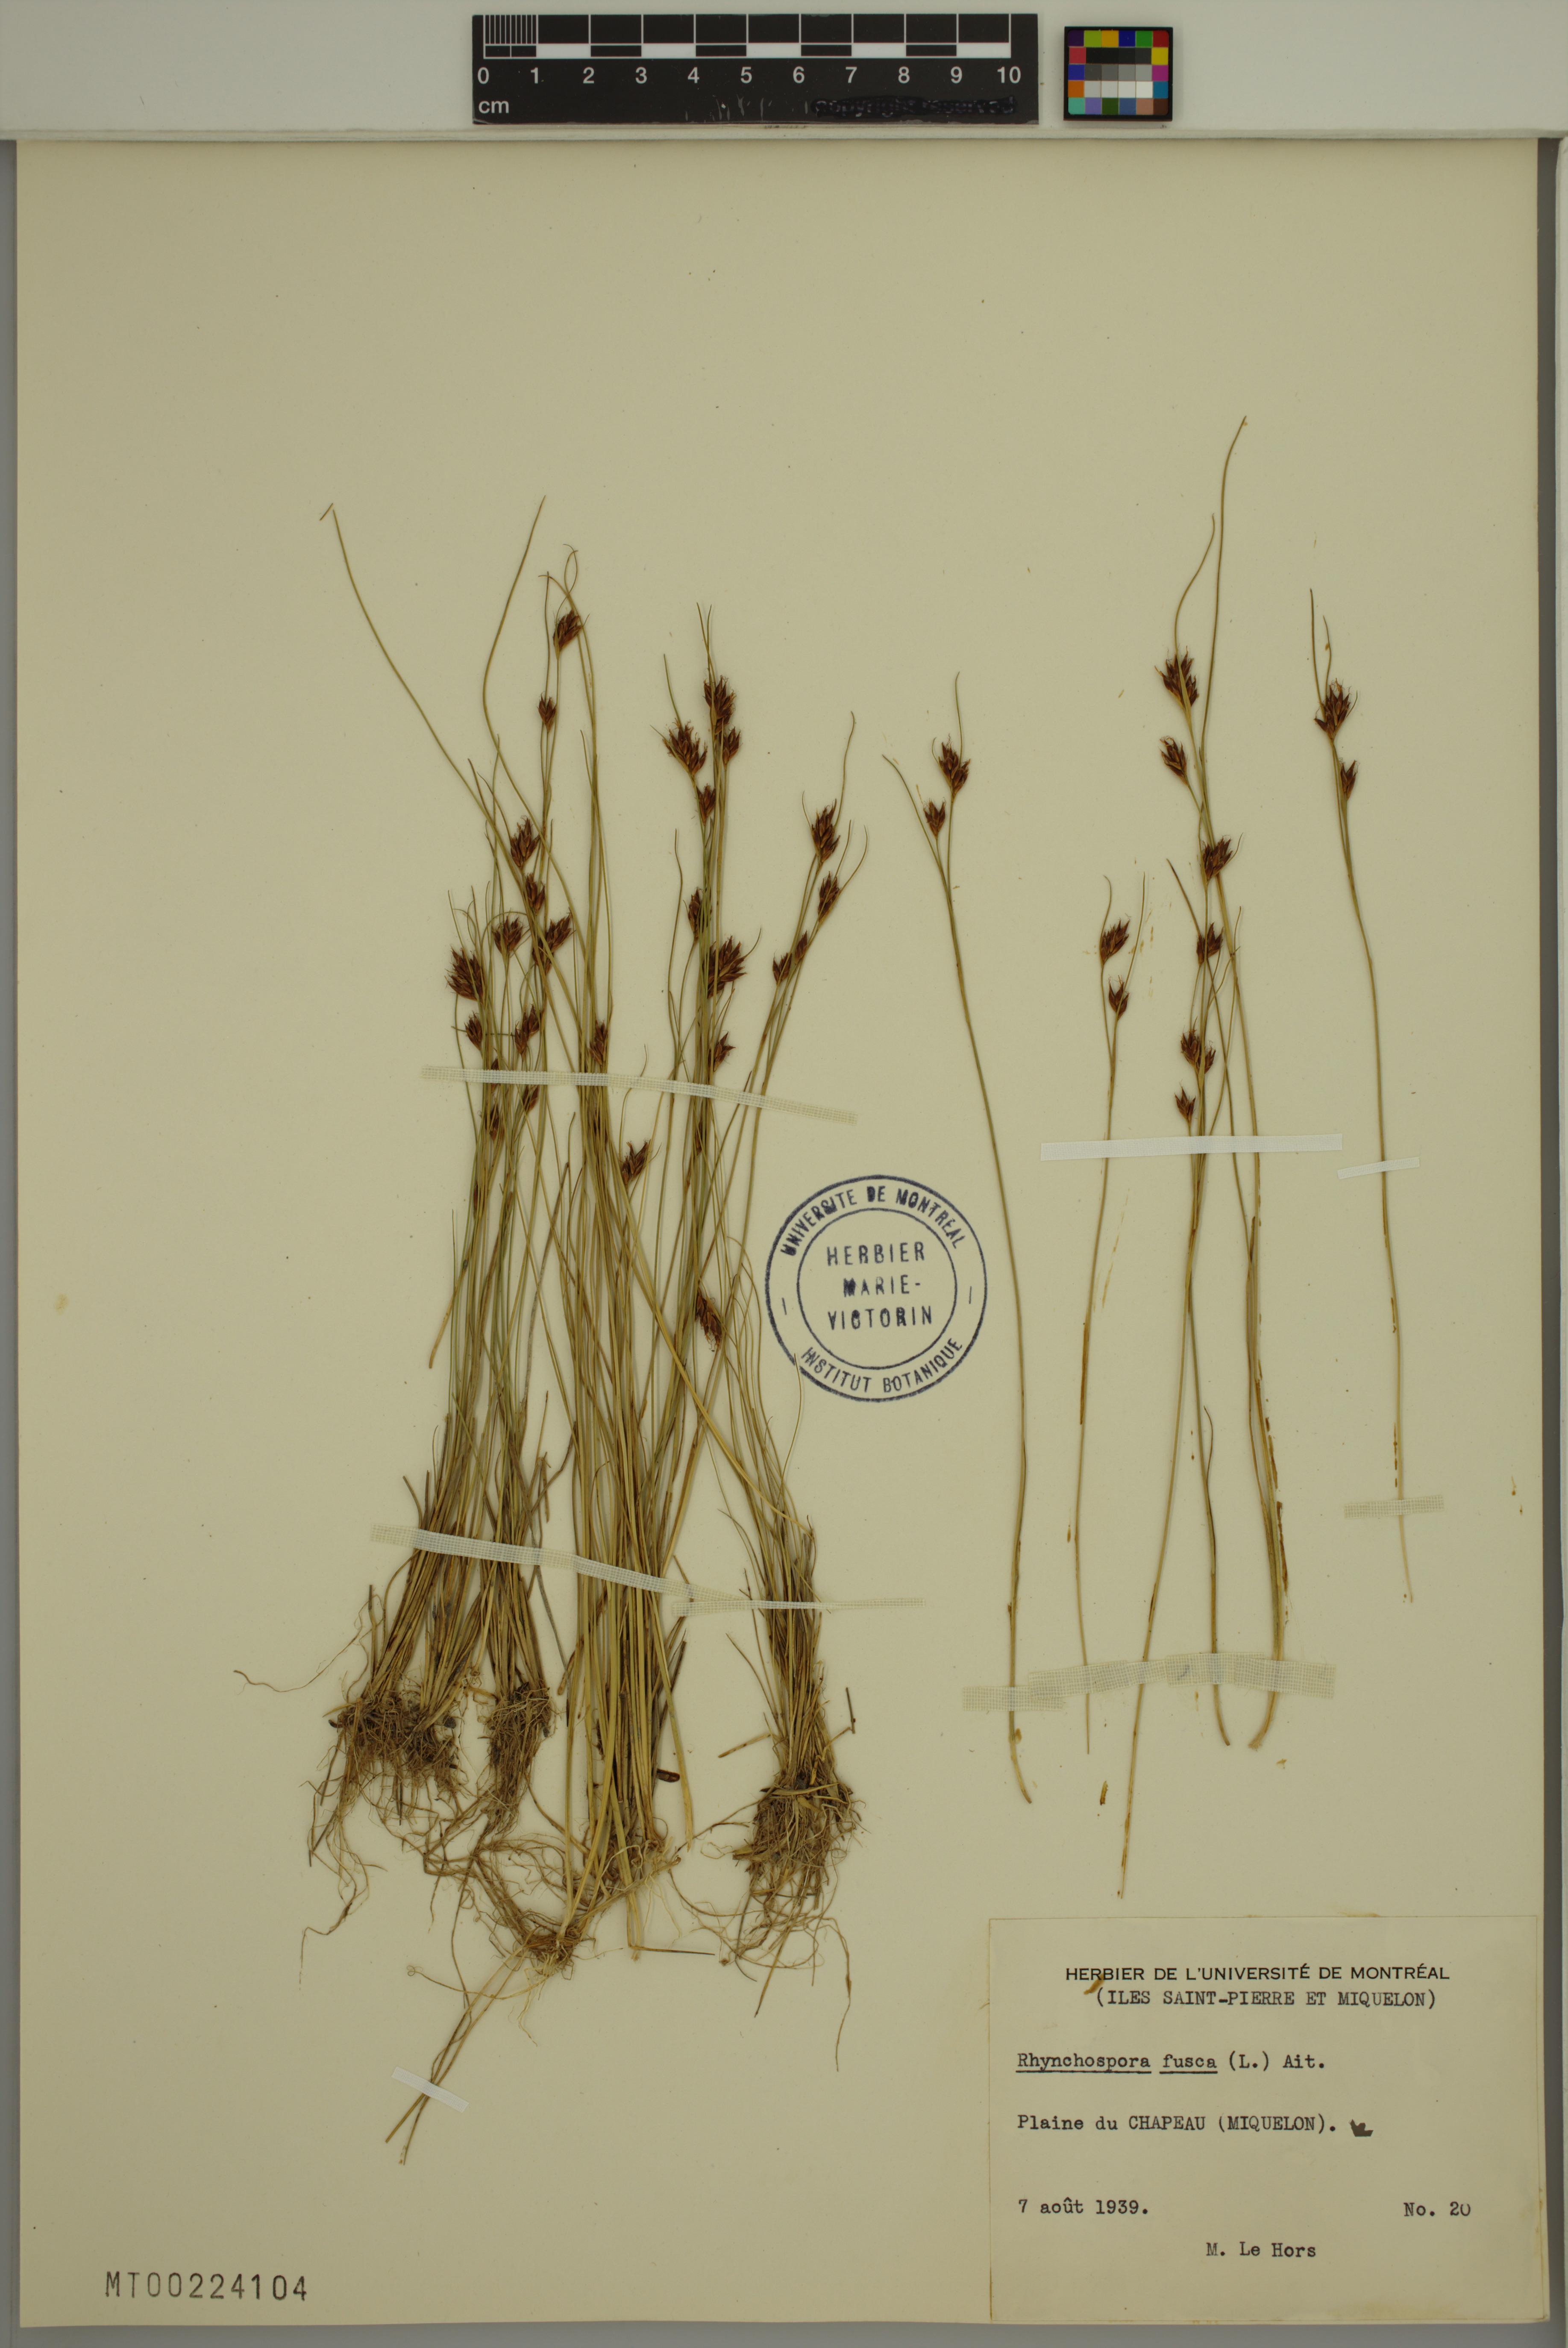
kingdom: Plantae
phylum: Tracheophyta
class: Liliopsida
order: Poales
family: Cyperaceae
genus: Rhynchospora
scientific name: Rhynchospora fusca
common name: Brown beak-sedge
